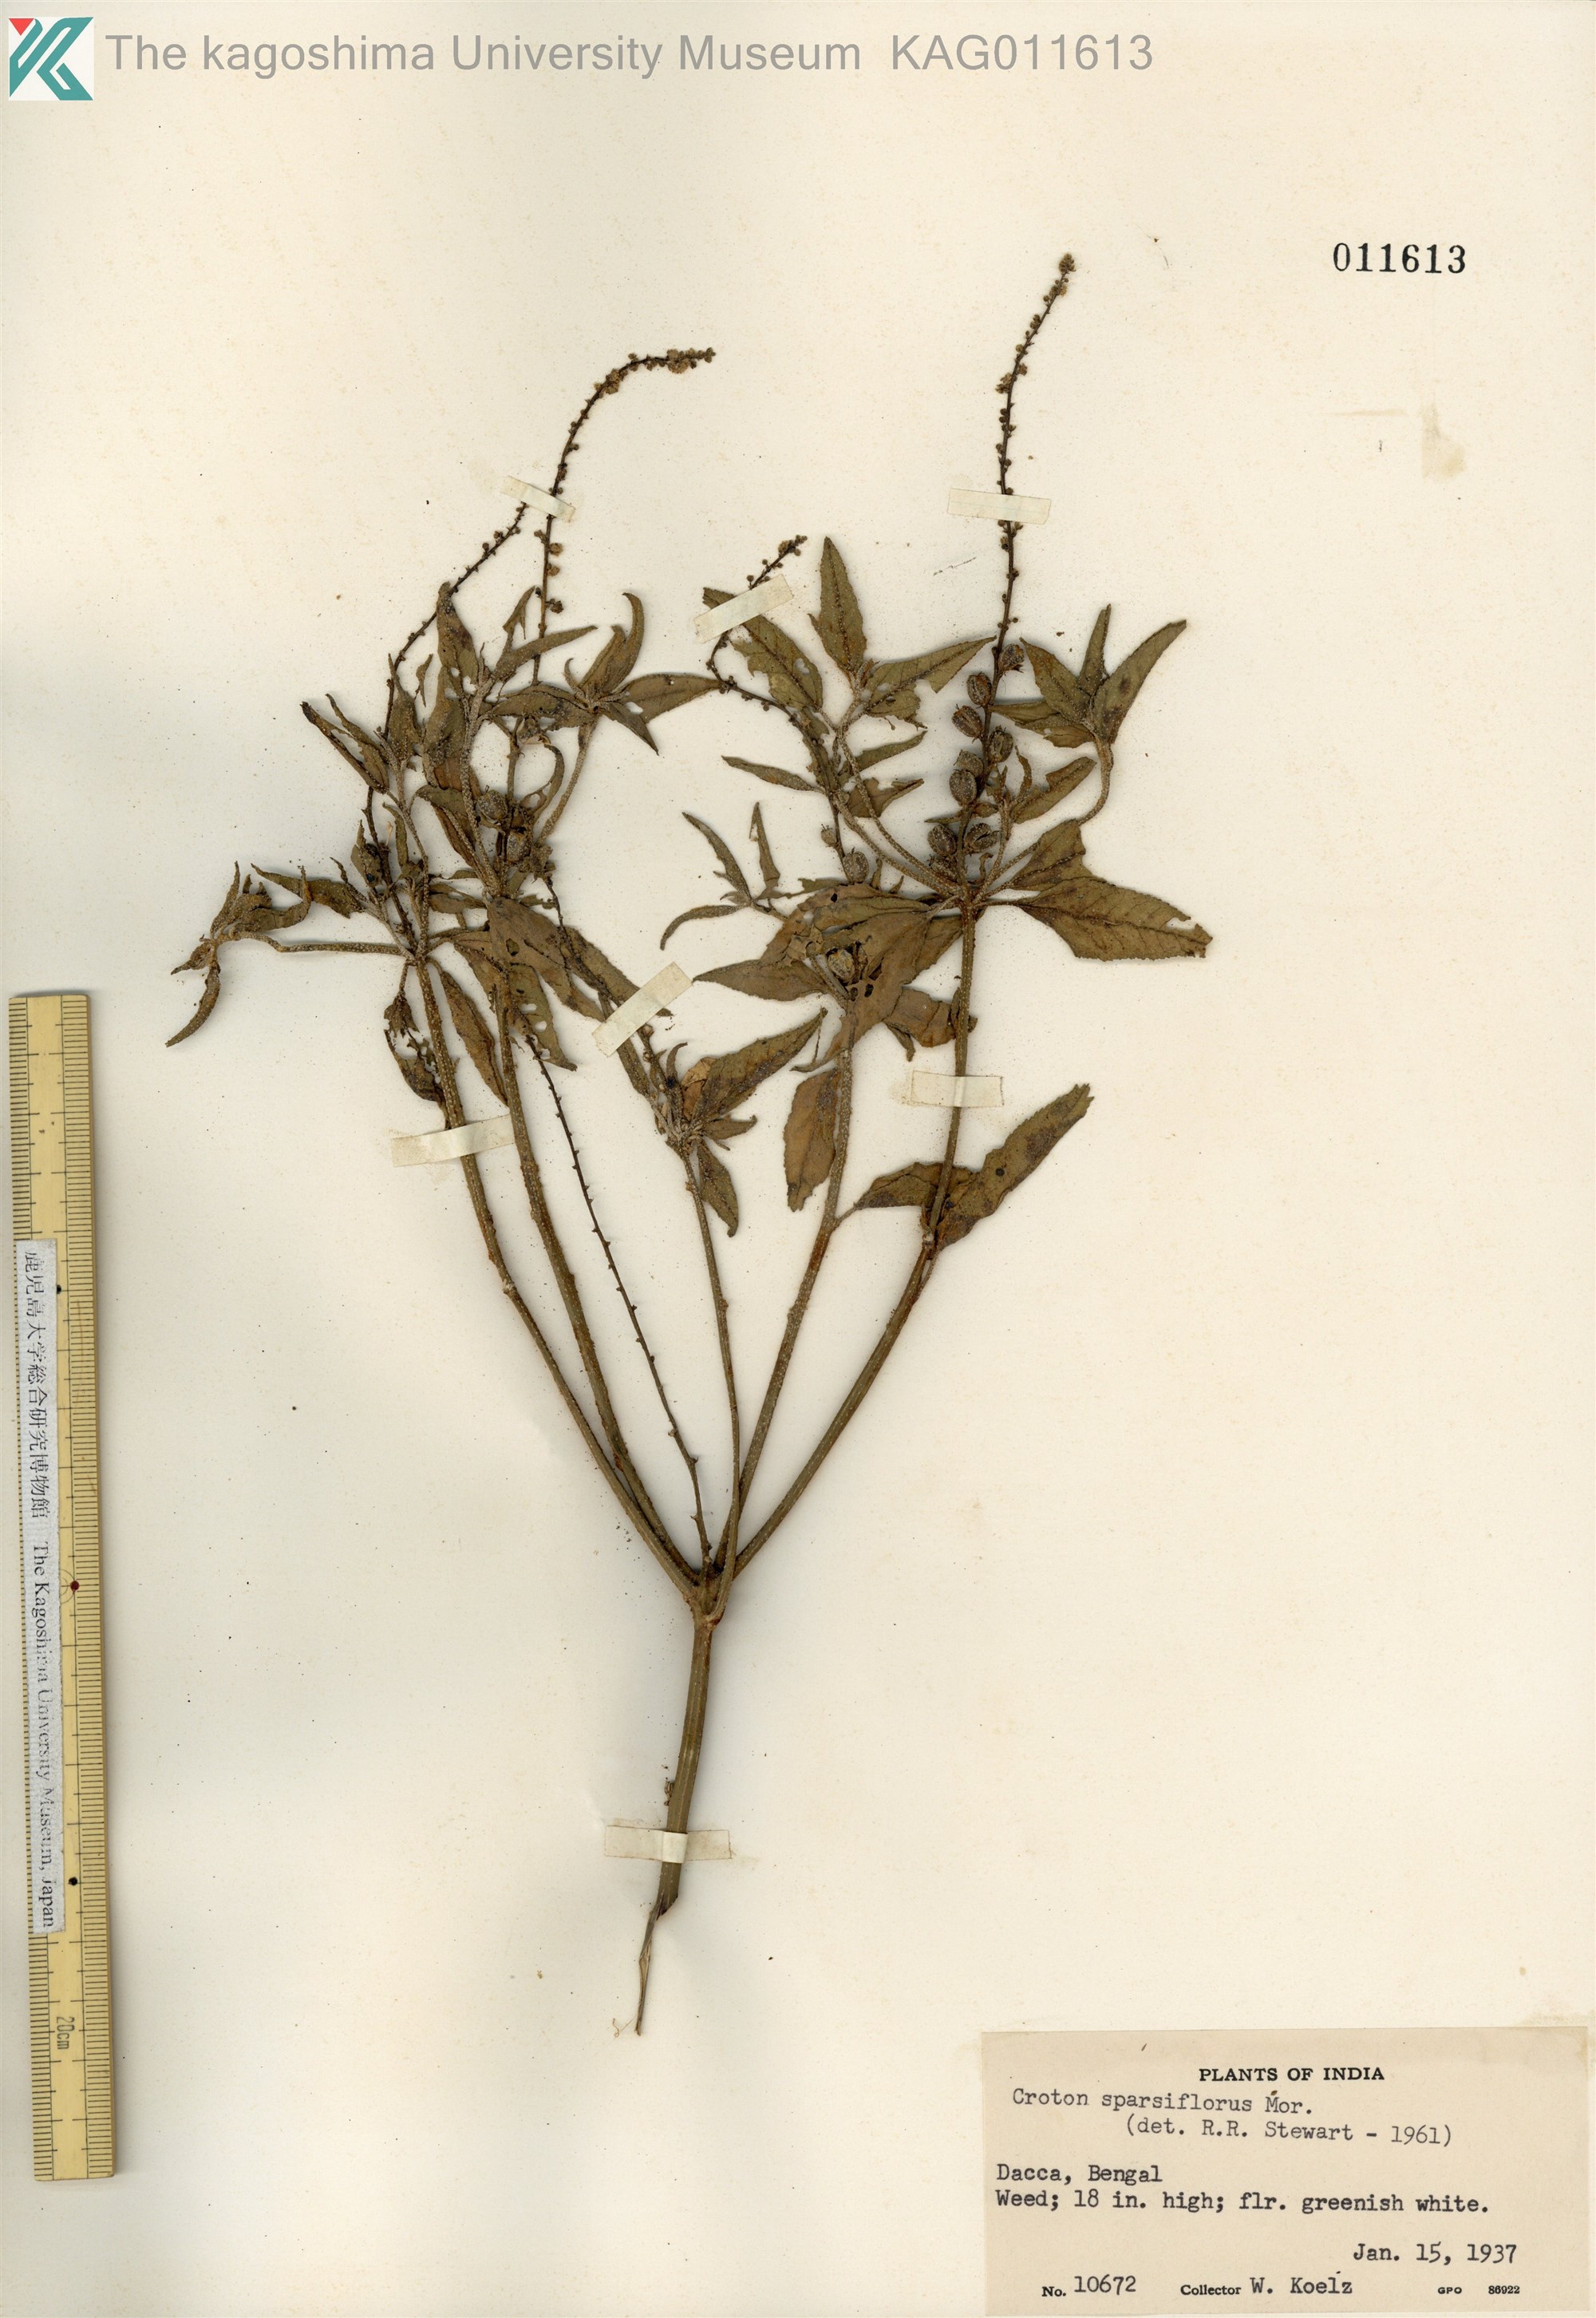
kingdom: Plantae
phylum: Tracheophyta
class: Magnoliopsida
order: Malpighiales
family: Euphorbiaceae
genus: Croton
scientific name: Croton bonplandianus
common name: Bonpland's croton
